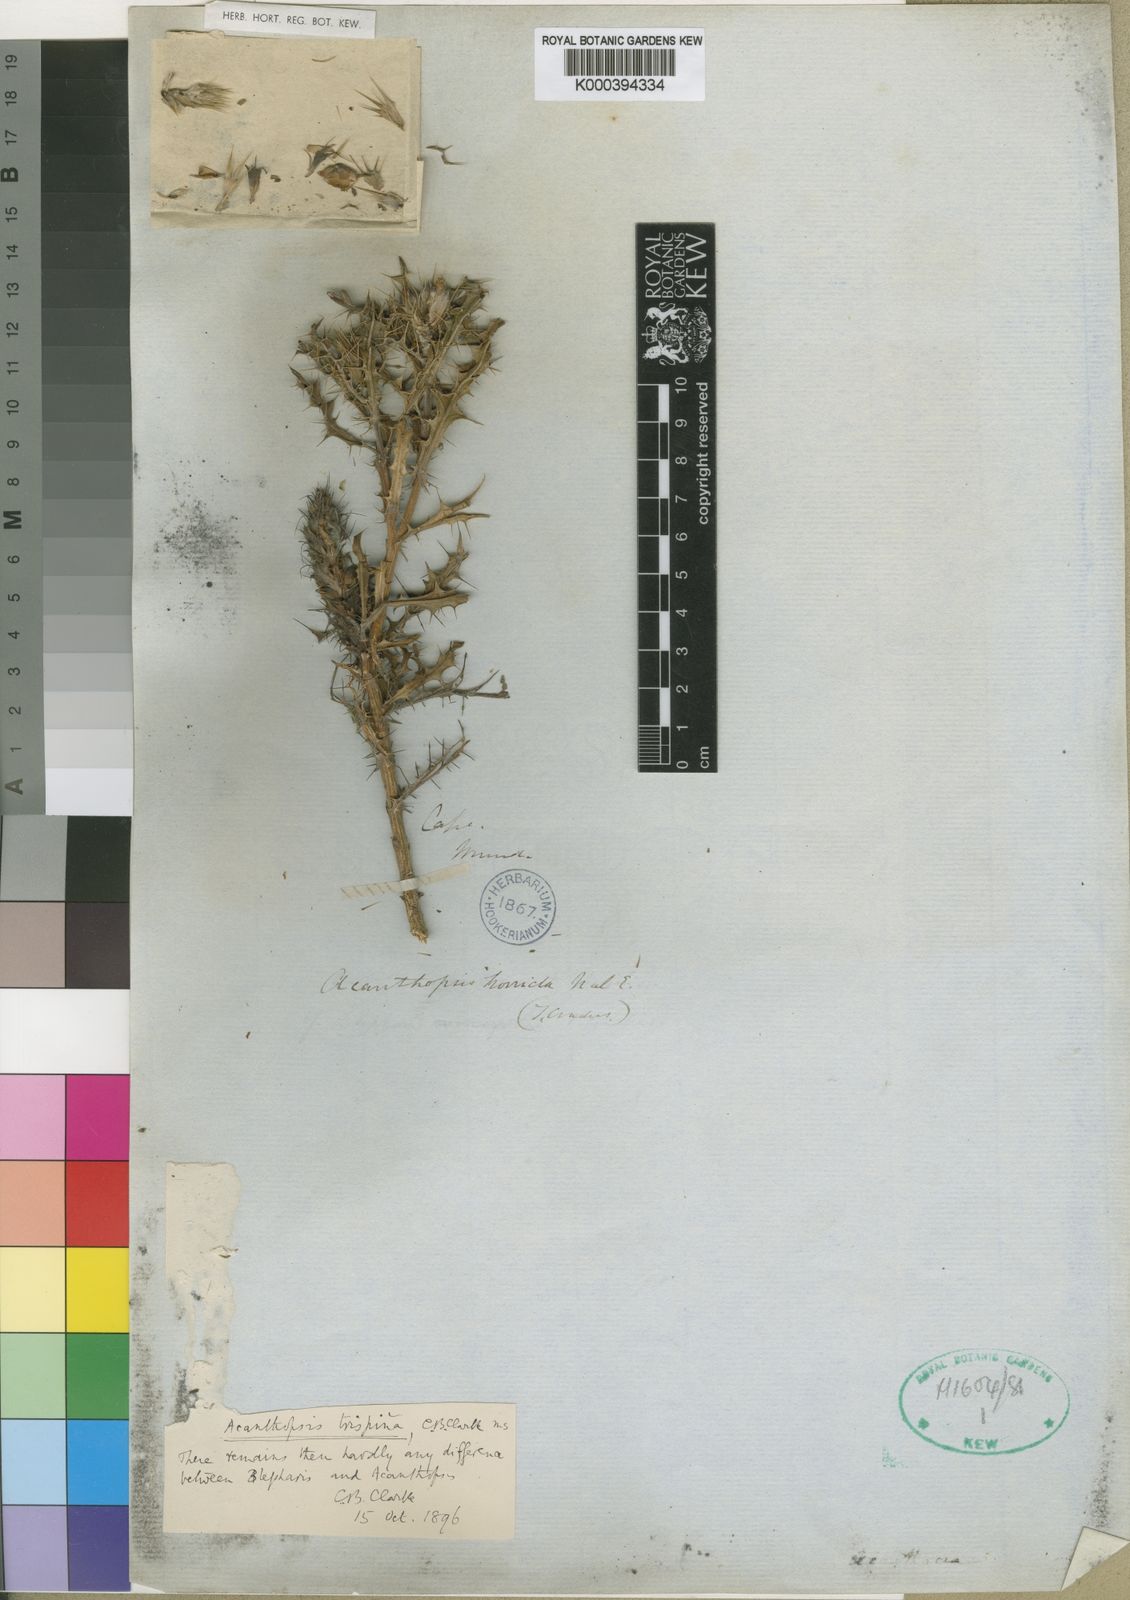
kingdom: Plantae
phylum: Tracheophyta
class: Magnoliopsida
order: Lamiales
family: Acanthaceae
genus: Acanthopsis
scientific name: Acanthopsis horrida
